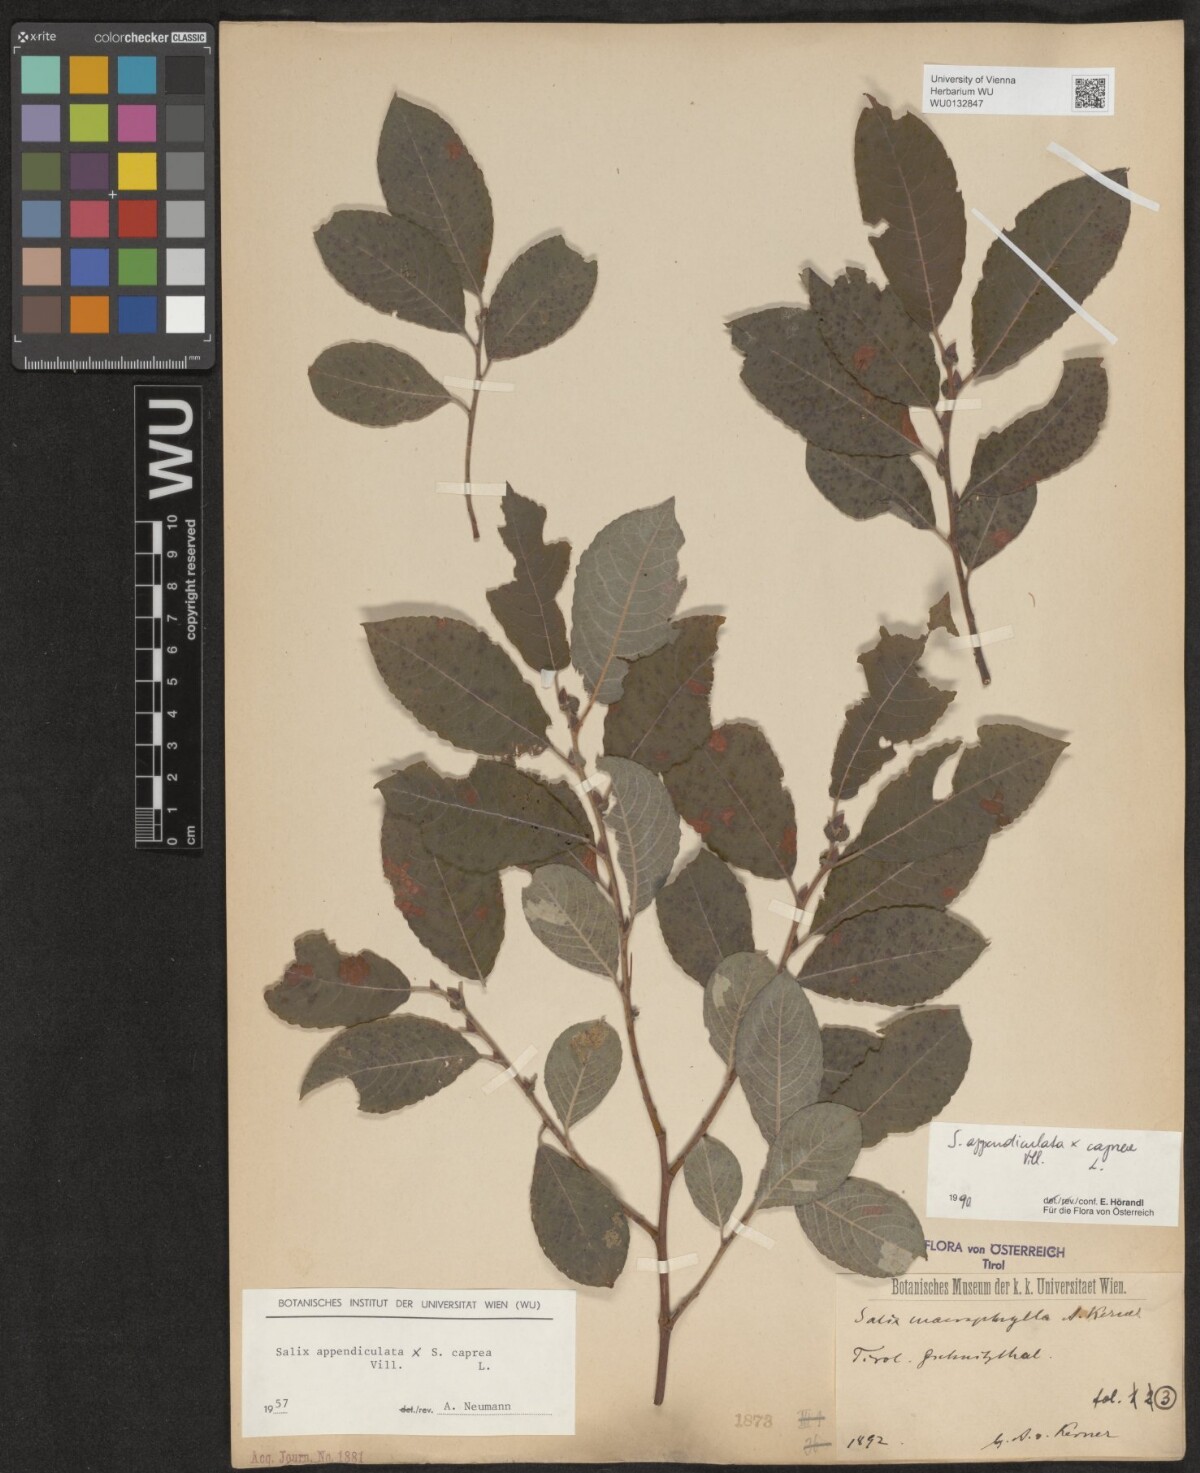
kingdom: Plantae
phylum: Tracheophyta
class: Magnoliopsida
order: Malpighiales
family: Salicaceae
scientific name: Salicaceae
